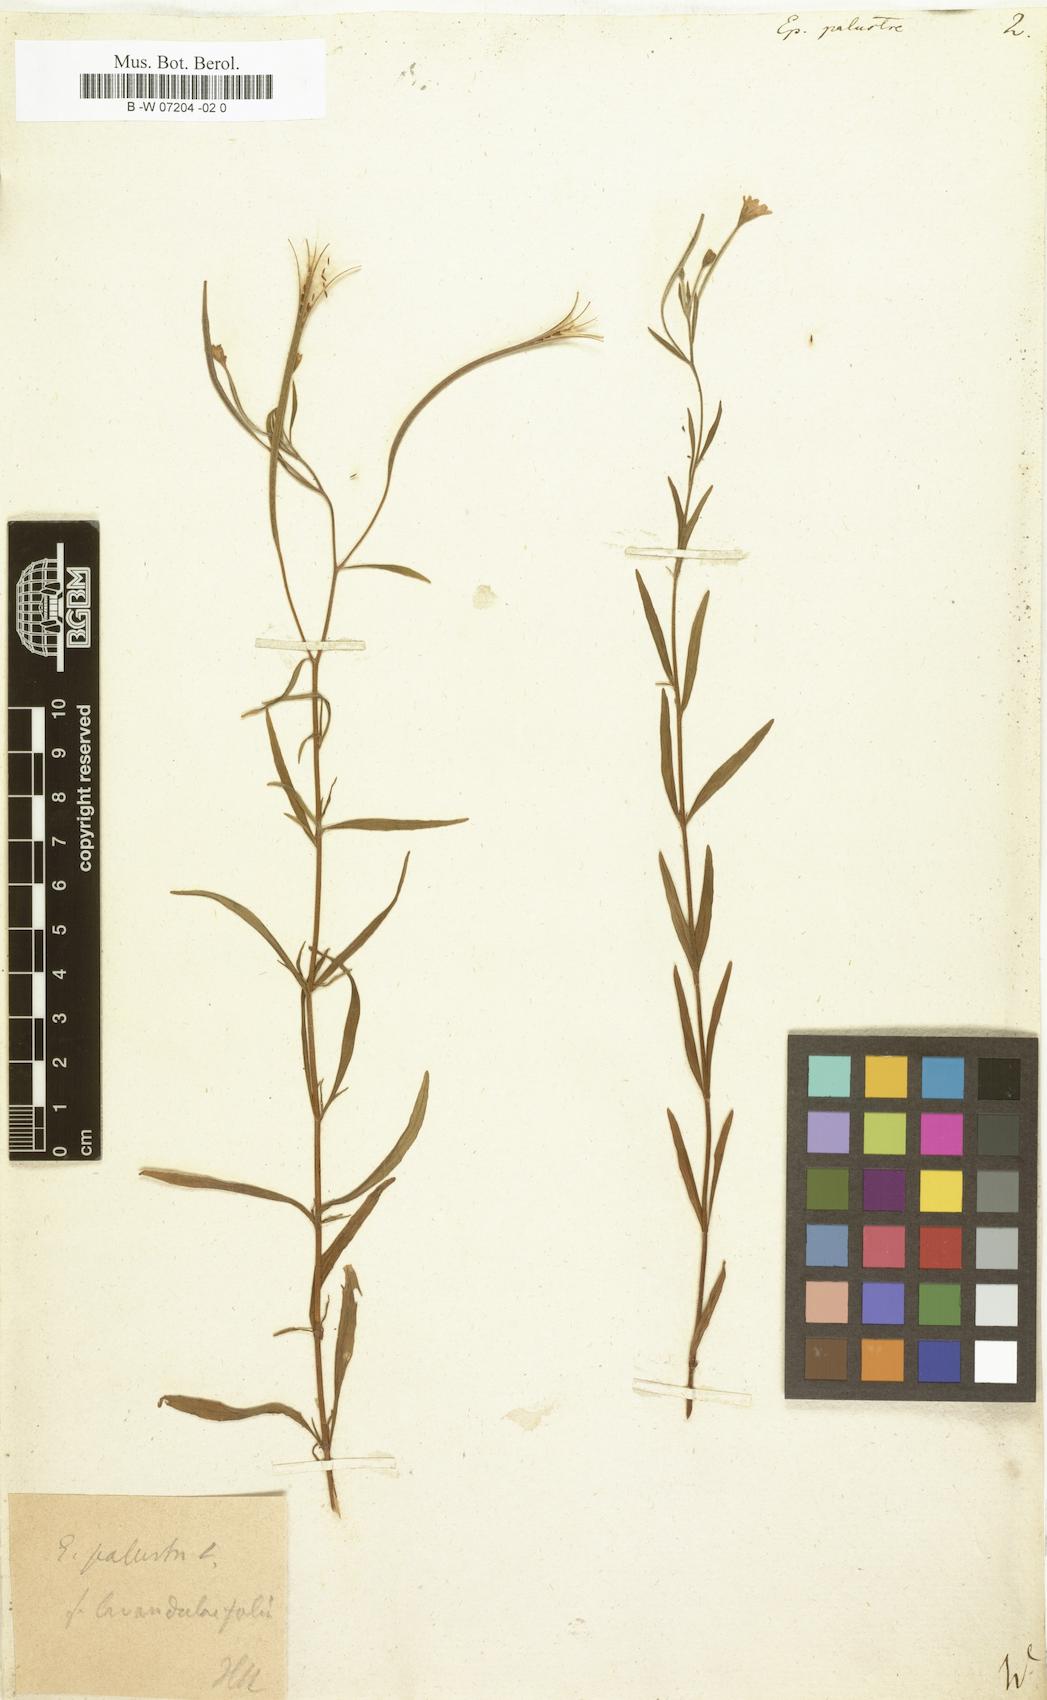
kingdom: Plantae
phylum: Tracheophyta
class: Magnoliopsida
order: Myrtales
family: Onagraceae
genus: Epilobium
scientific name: Epilobium palustre
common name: Marsh willowherb
